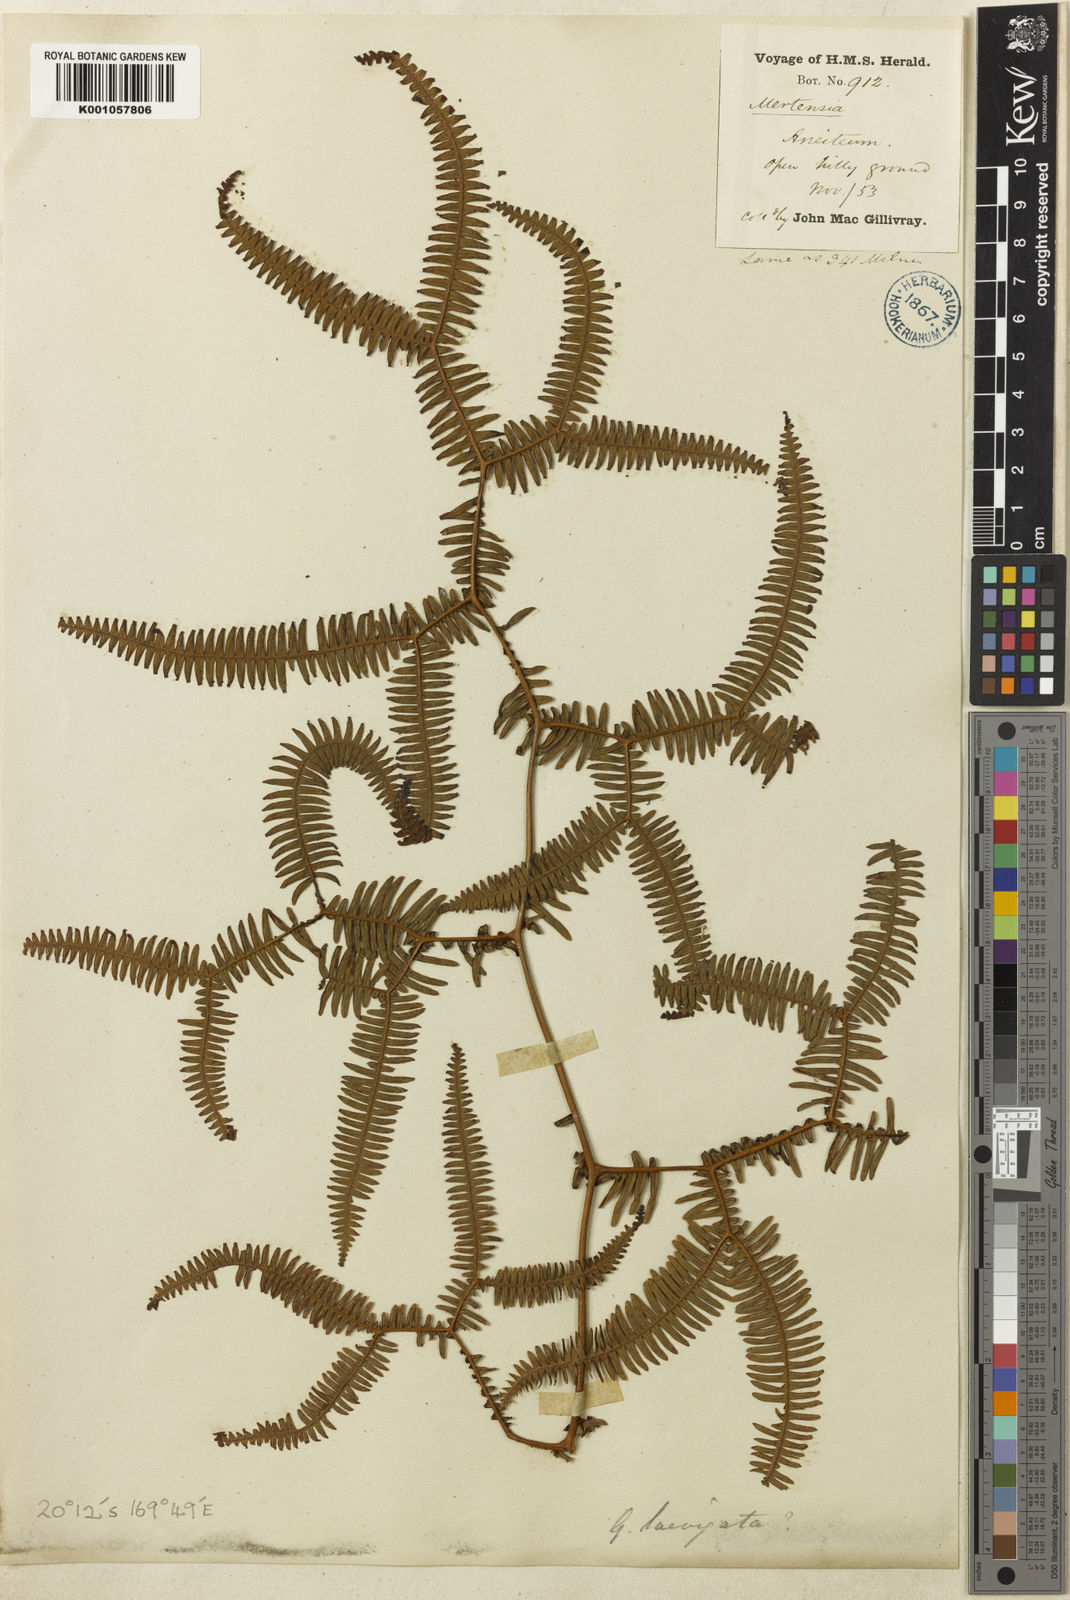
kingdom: Plantae
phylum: Tracheophyta
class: Polypodiopsida
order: Gleicheniales
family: Gleicheniaceae
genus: Sticherus
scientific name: Sticherus milnei
